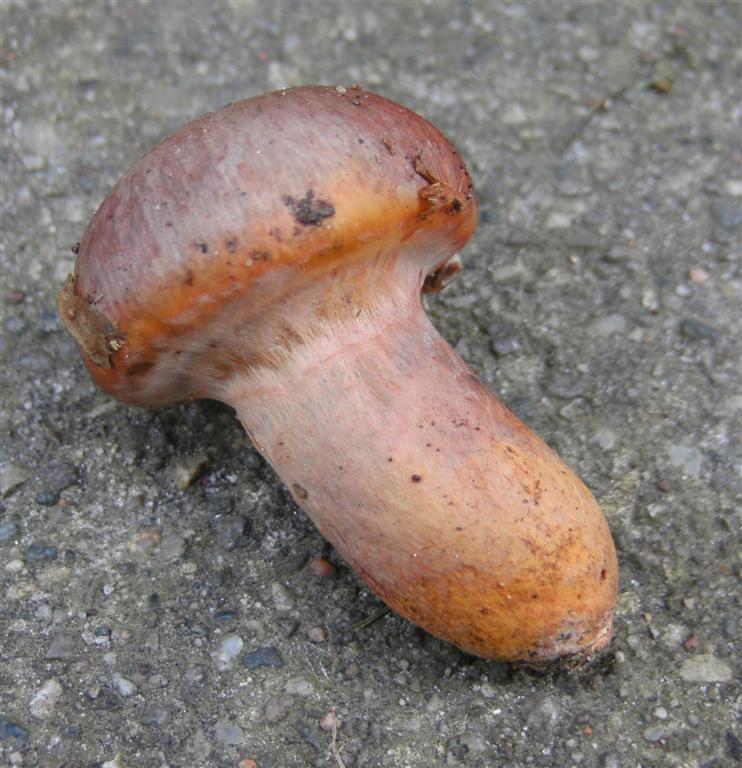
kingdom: Fungi
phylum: Basidiomycota
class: Agaricomycetes
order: Boletales
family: Gomphidiaceae
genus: Chroogomphus
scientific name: Chroogomphus rutilus
